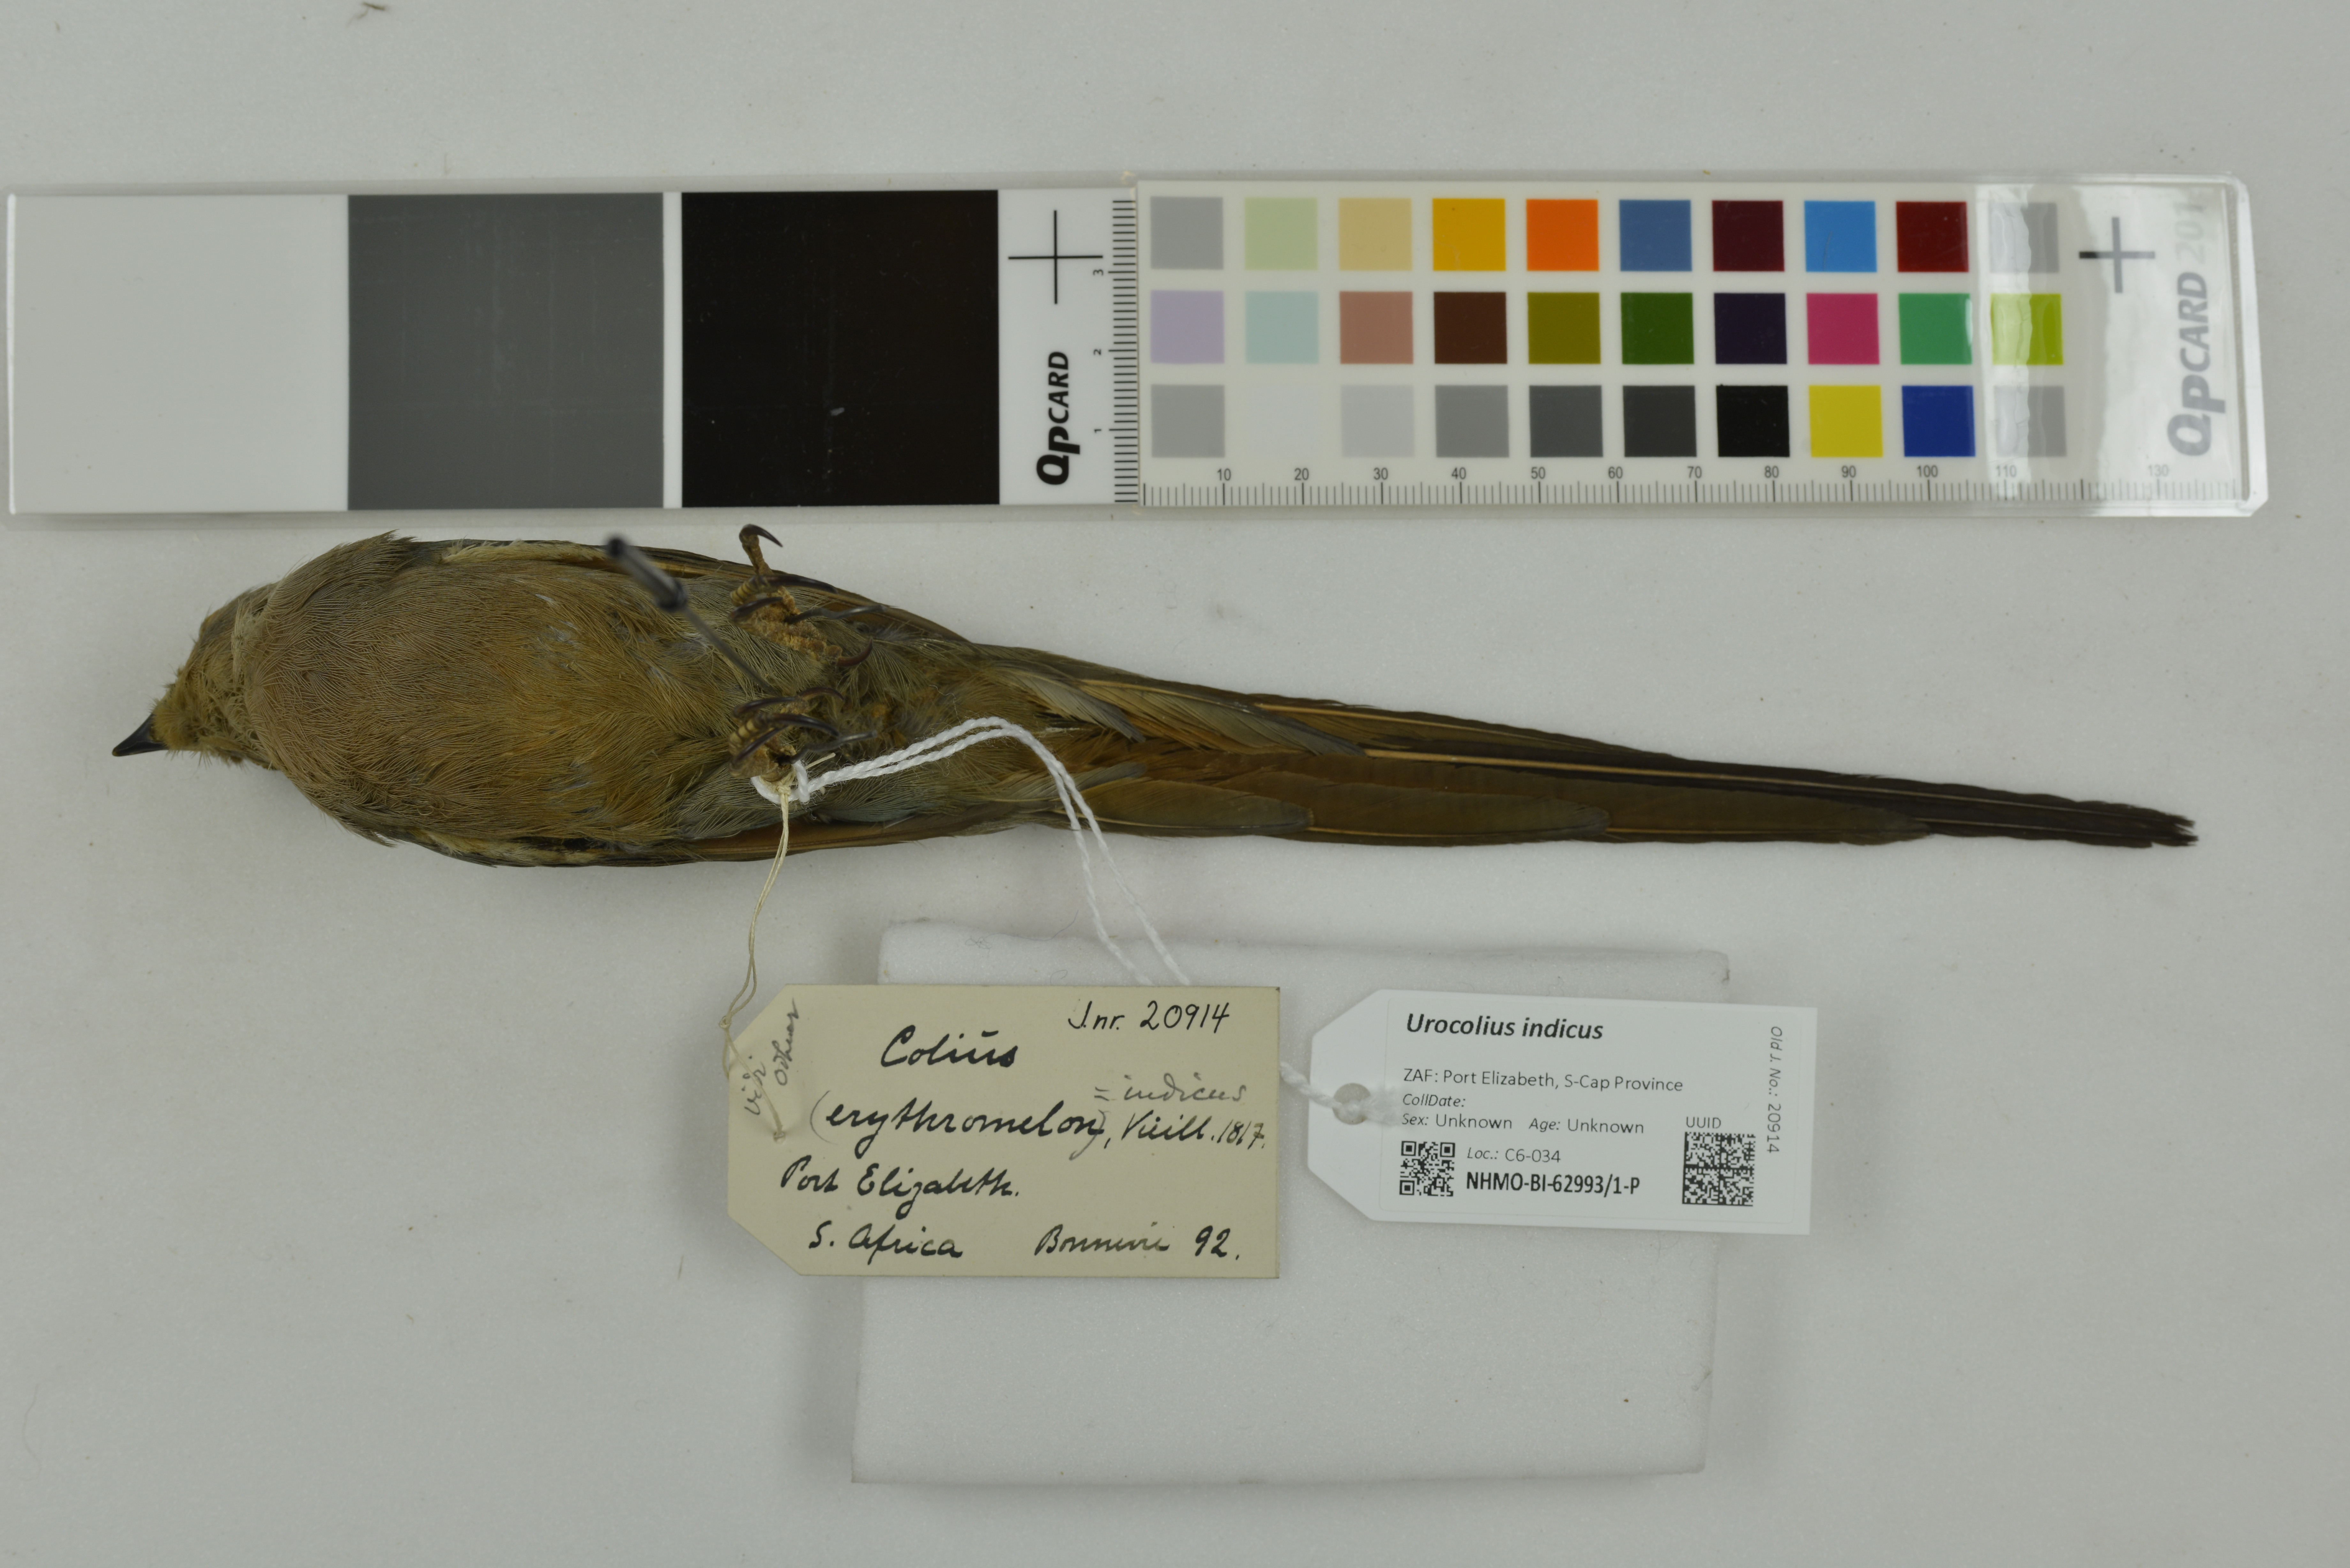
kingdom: Animalia
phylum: Chordata
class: Aves
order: Coliiformes
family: Coliidae
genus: Urocolius
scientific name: Urocolius indicus
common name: Red-faced mousebird
